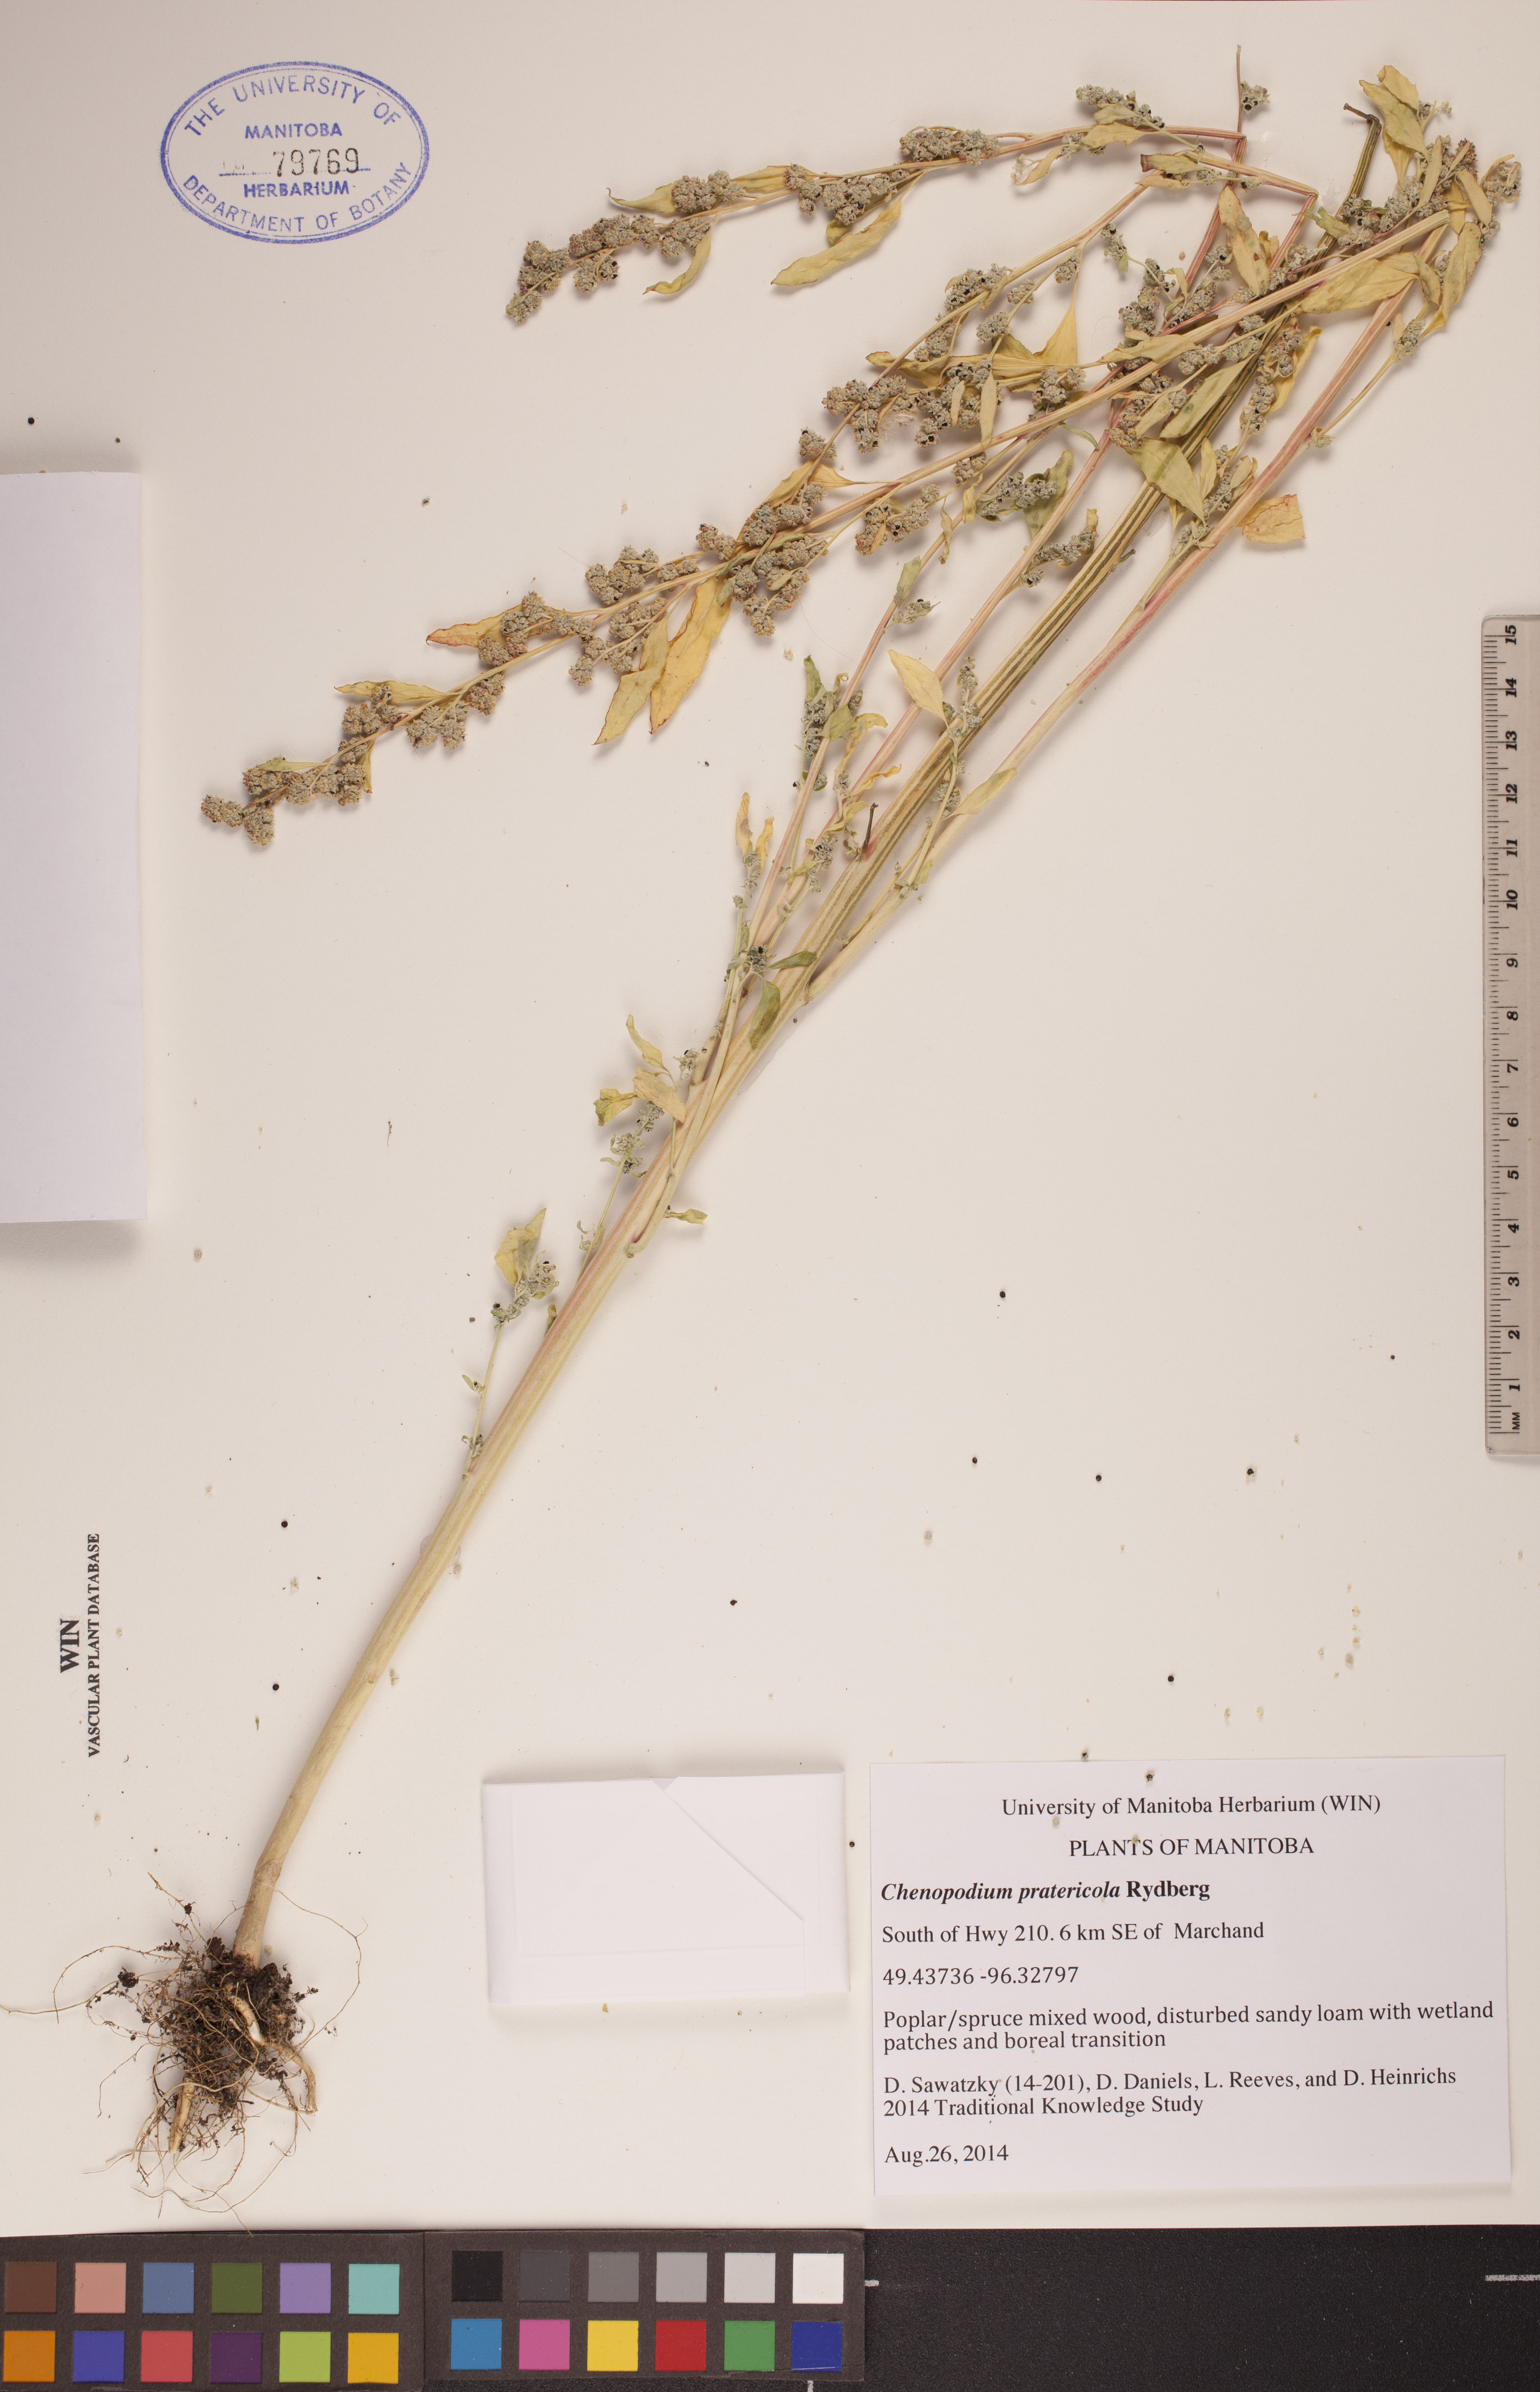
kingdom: Plantae
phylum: Tracheophyta
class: Magnoliopsida
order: Caryophyllales
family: Amaranthaceae
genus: Chenopodium
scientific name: Chenopodium pratericola
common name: Desert goosefoot
